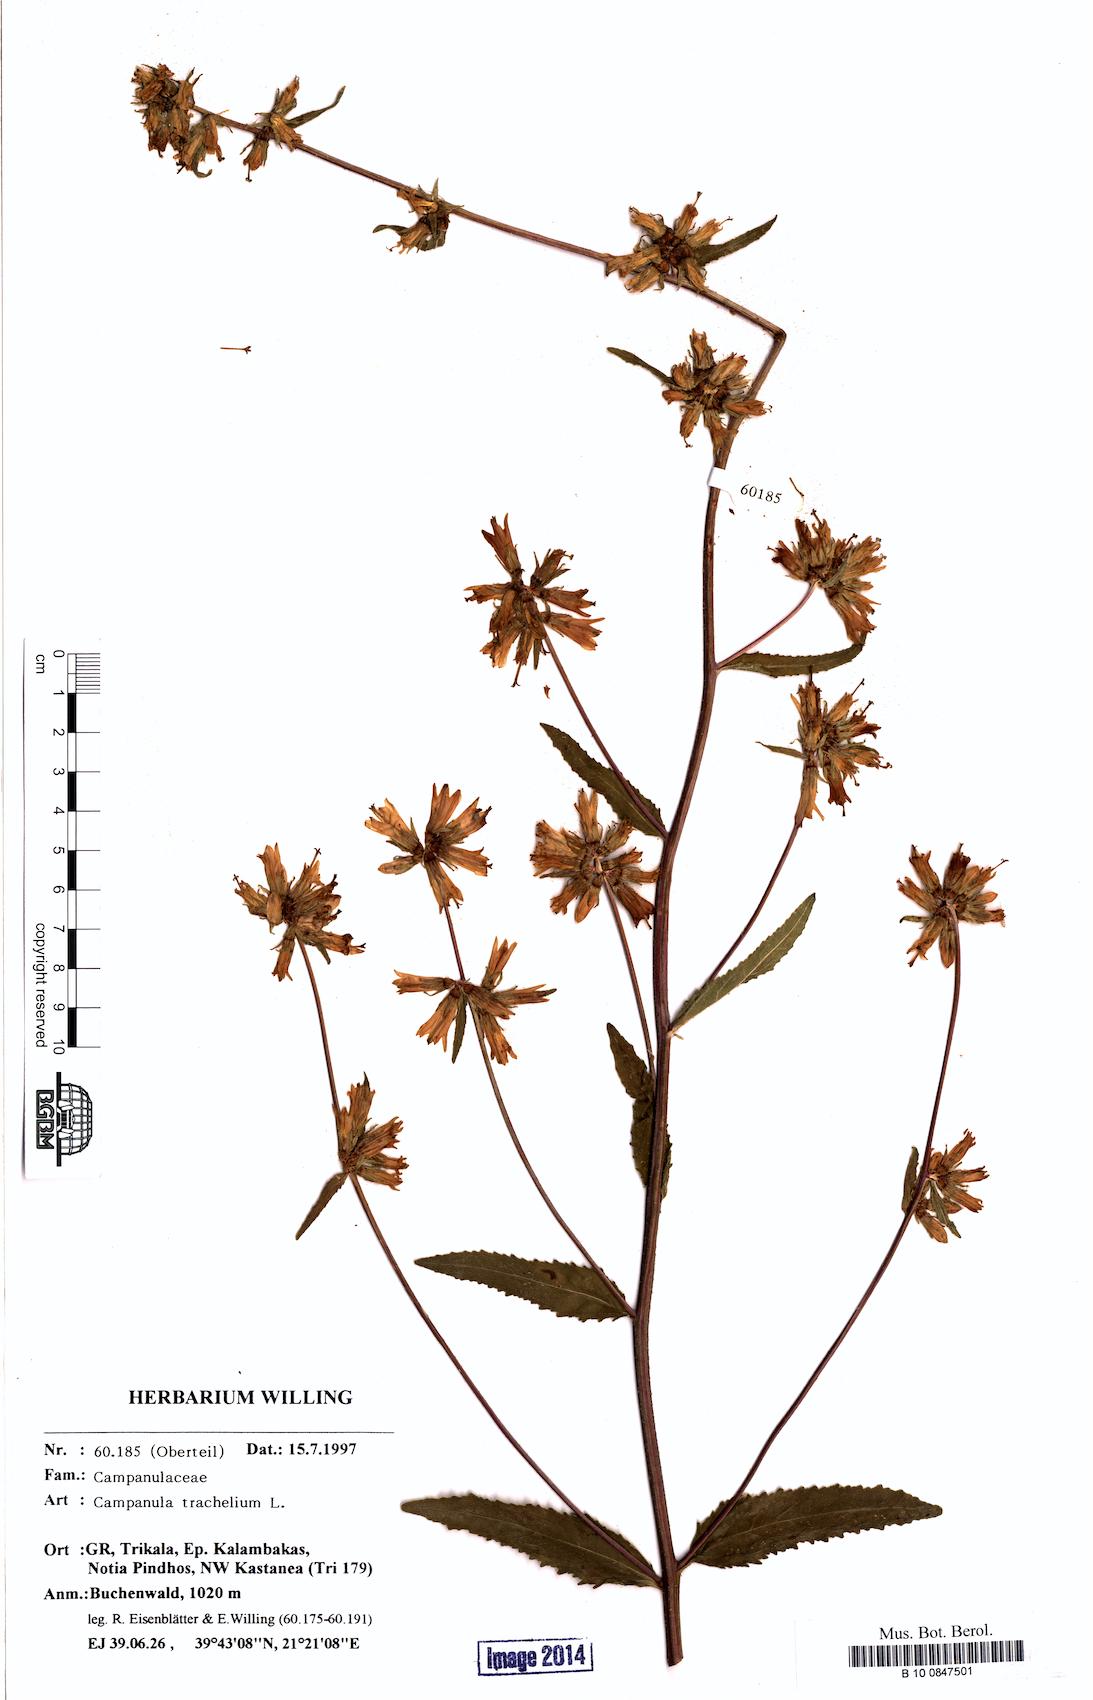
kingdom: Plantae
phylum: Tracheophyta
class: Magnoliopsida
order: Asterales
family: Campanulaceae
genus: Campanula
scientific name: Campanula trachelium
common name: Nettle-leaved bellflower
